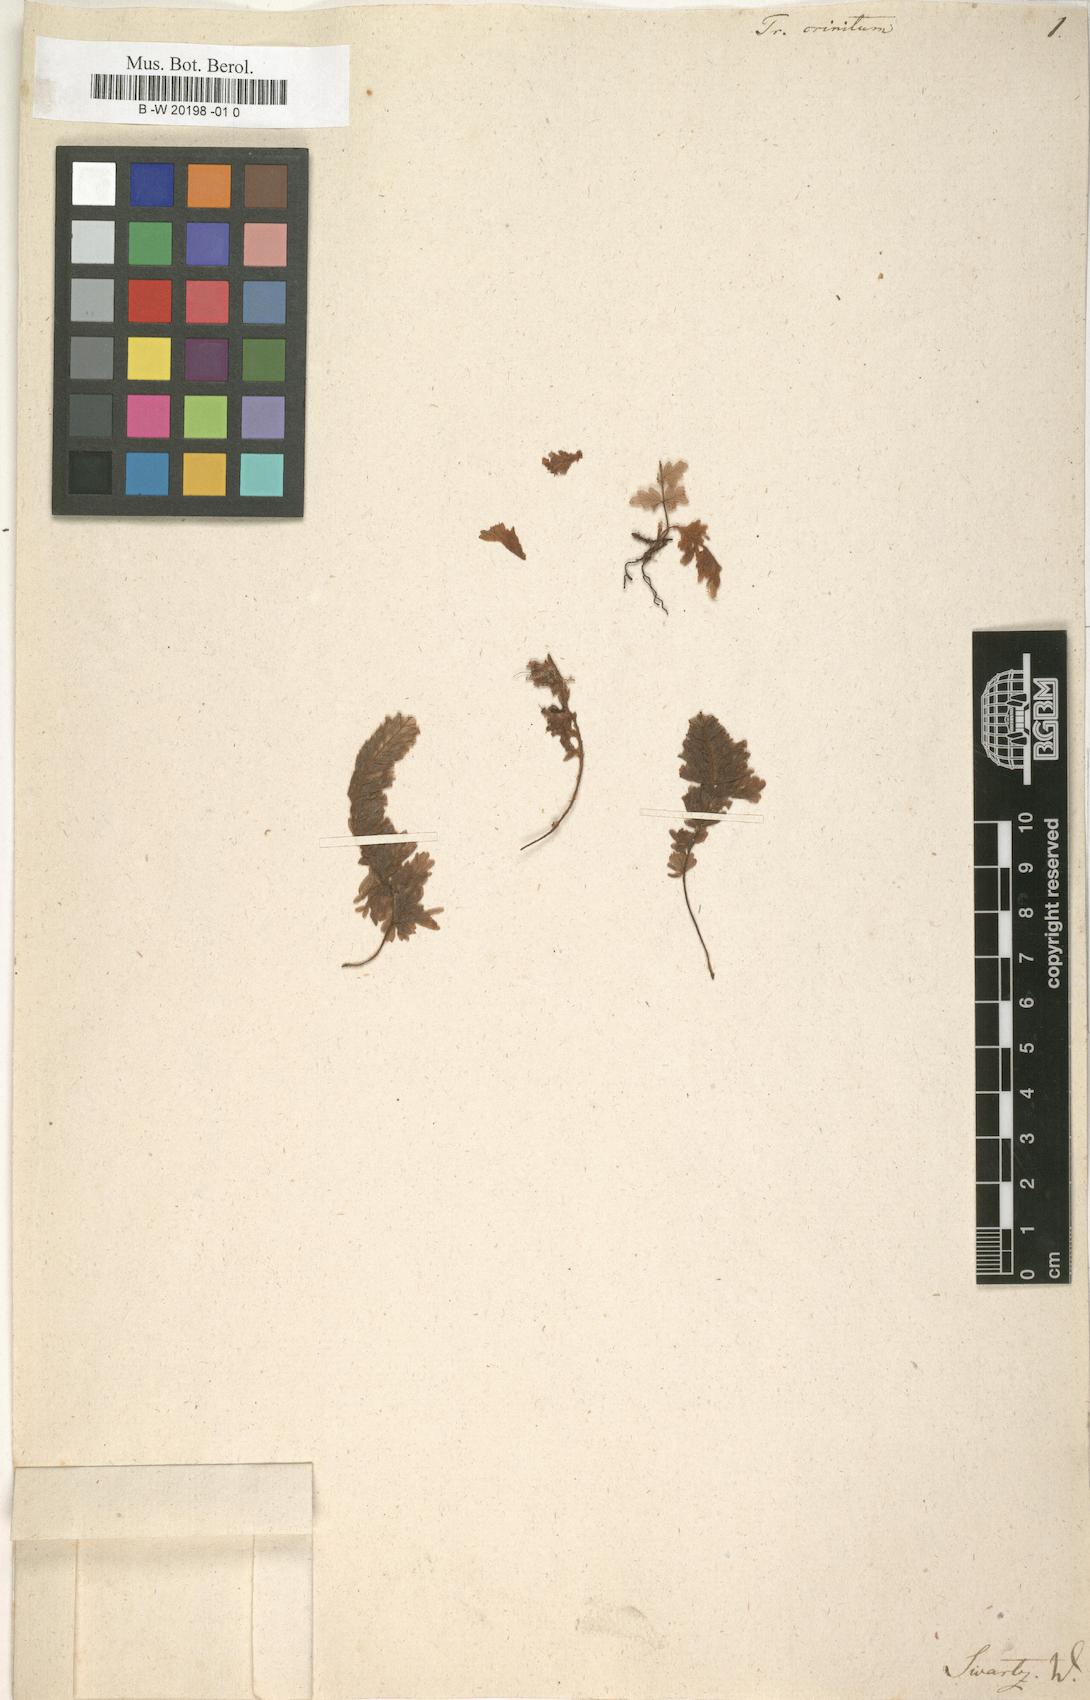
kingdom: Plantae
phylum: Tracheophyta
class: Polypodiopsida
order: Hymenophyllales
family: Hymenophyllaceae
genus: Trichomanes
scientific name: Trichomanes crinitum
